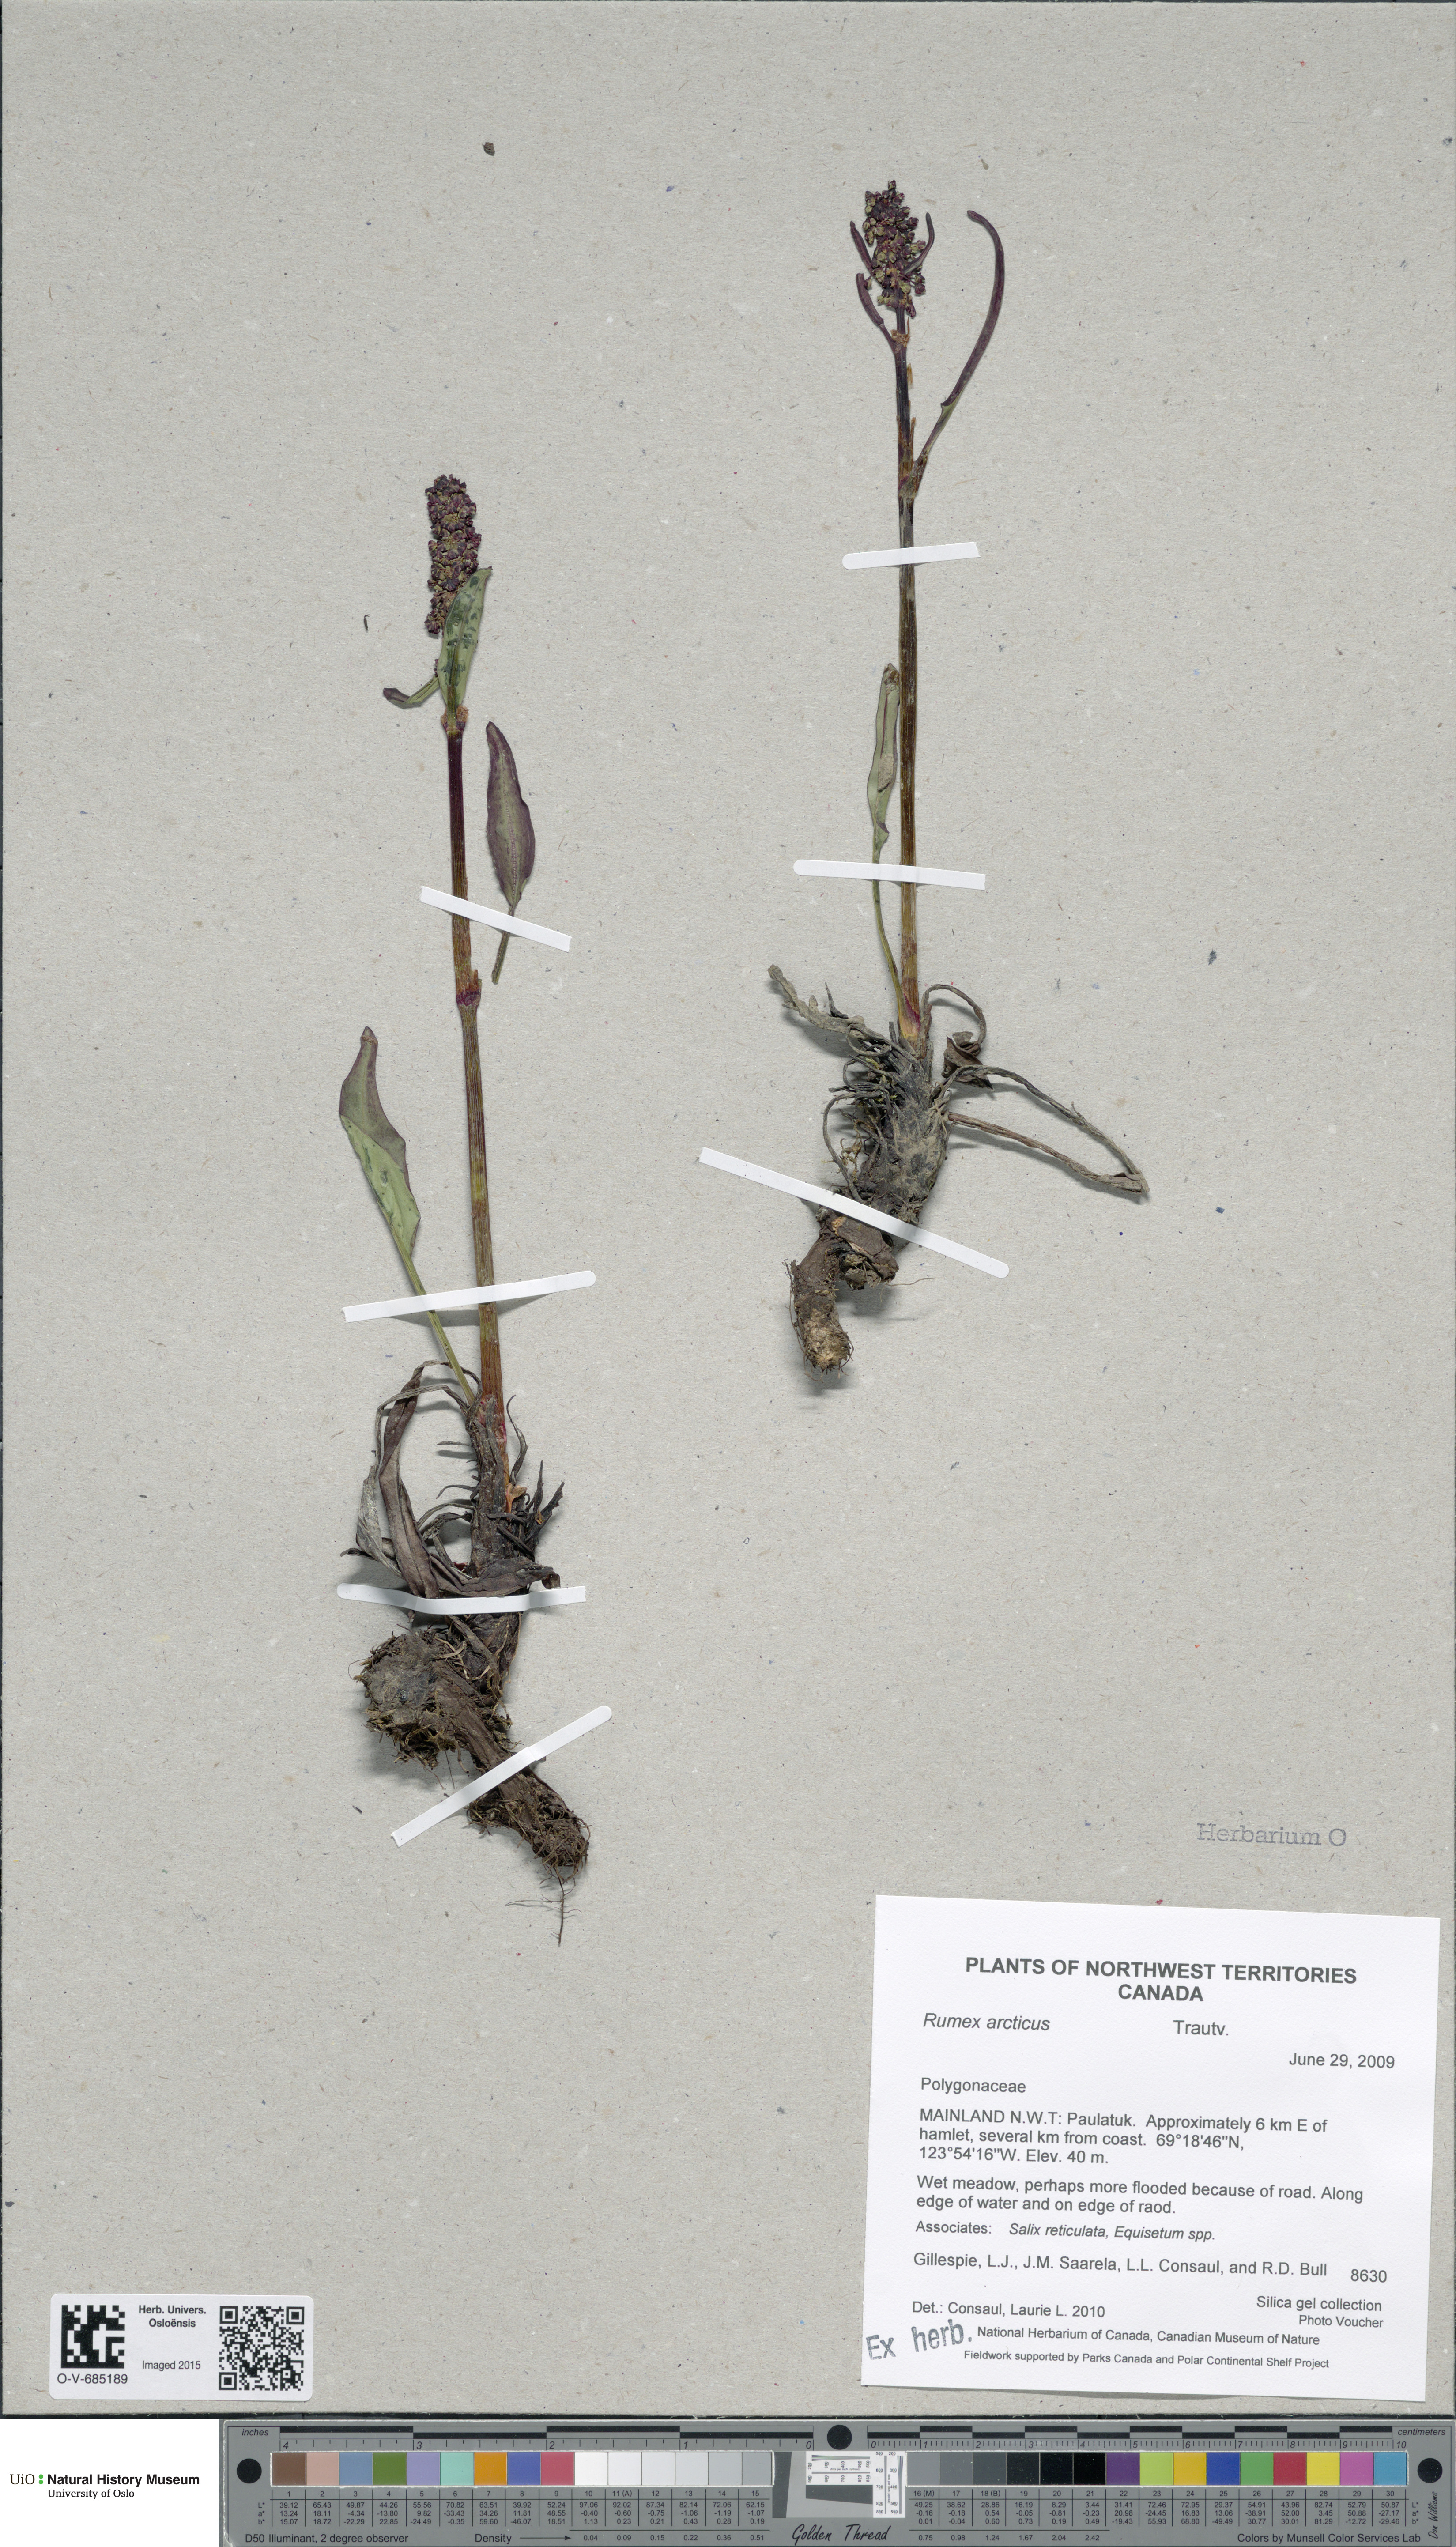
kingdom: Plantae
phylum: Tracheophyta
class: Magnoliopsida
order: Caryophyllales
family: Polygonaceae
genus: Rumex
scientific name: Rumex arcticus
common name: Arctic dock
